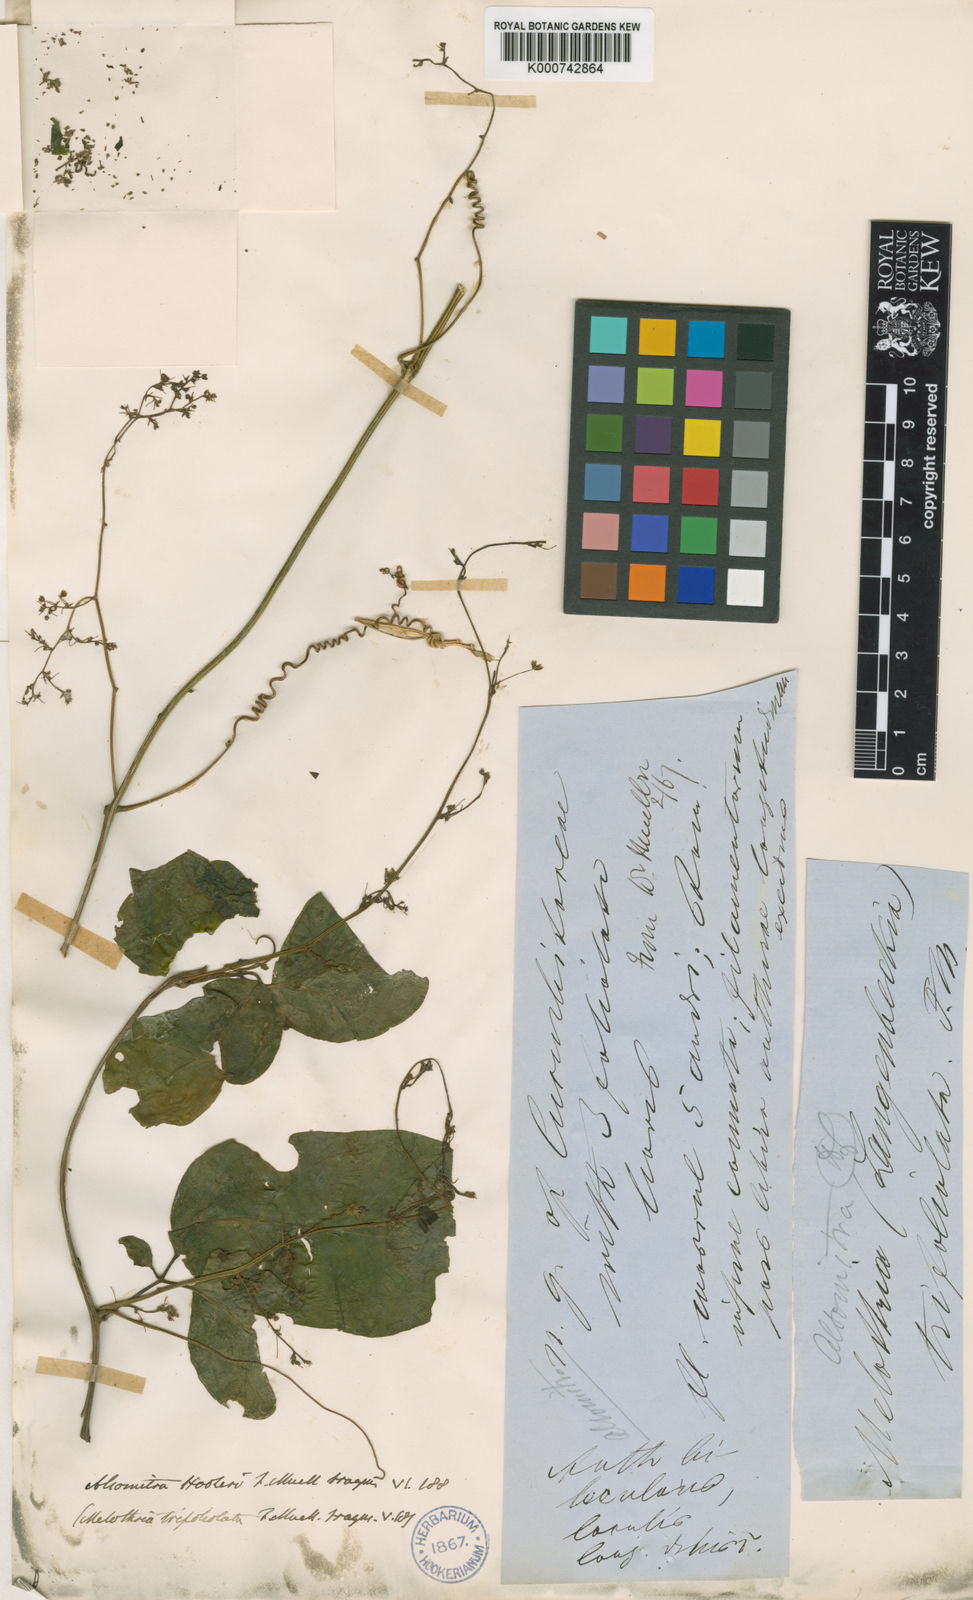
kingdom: Plantae
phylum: Tracheophyta
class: Magnoliopsida
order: Cucurbitales
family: Cucurbitaceae
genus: Neoalsomitra
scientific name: Neoalsomitra
